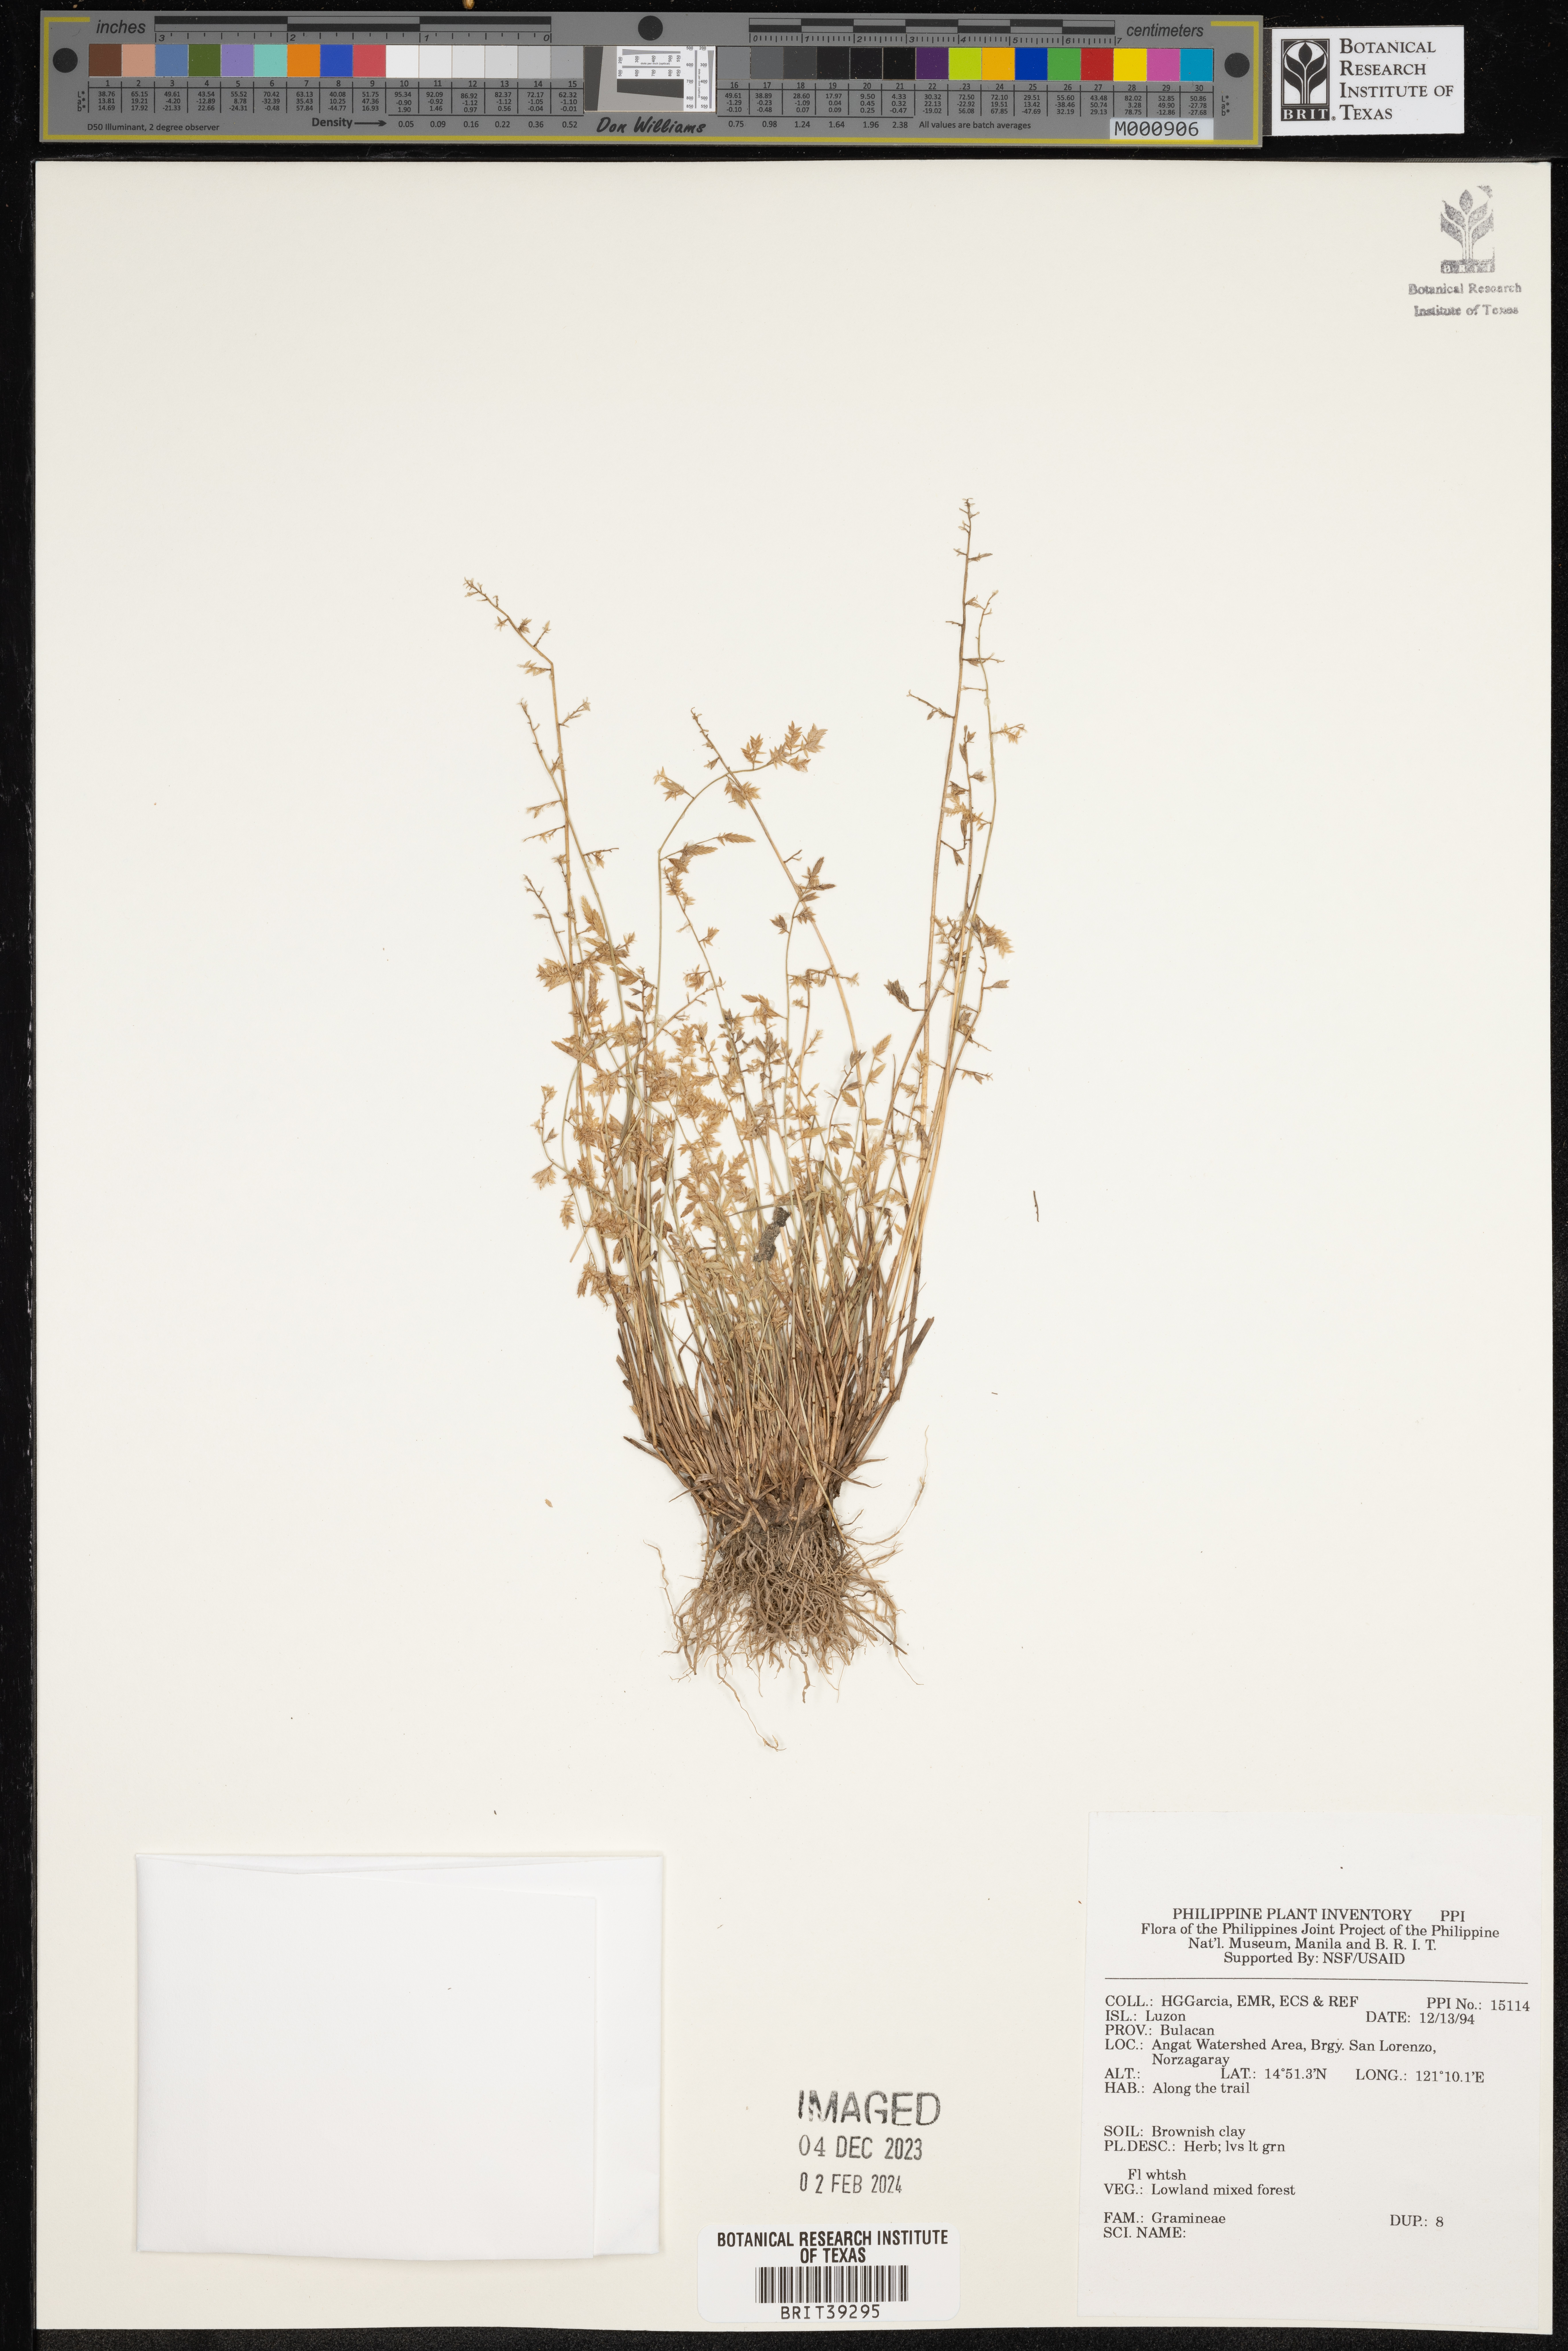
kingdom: Plantae
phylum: Tracheophyta
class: Liliopsida
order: Poales
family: Poaceae
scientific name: Poaceae
